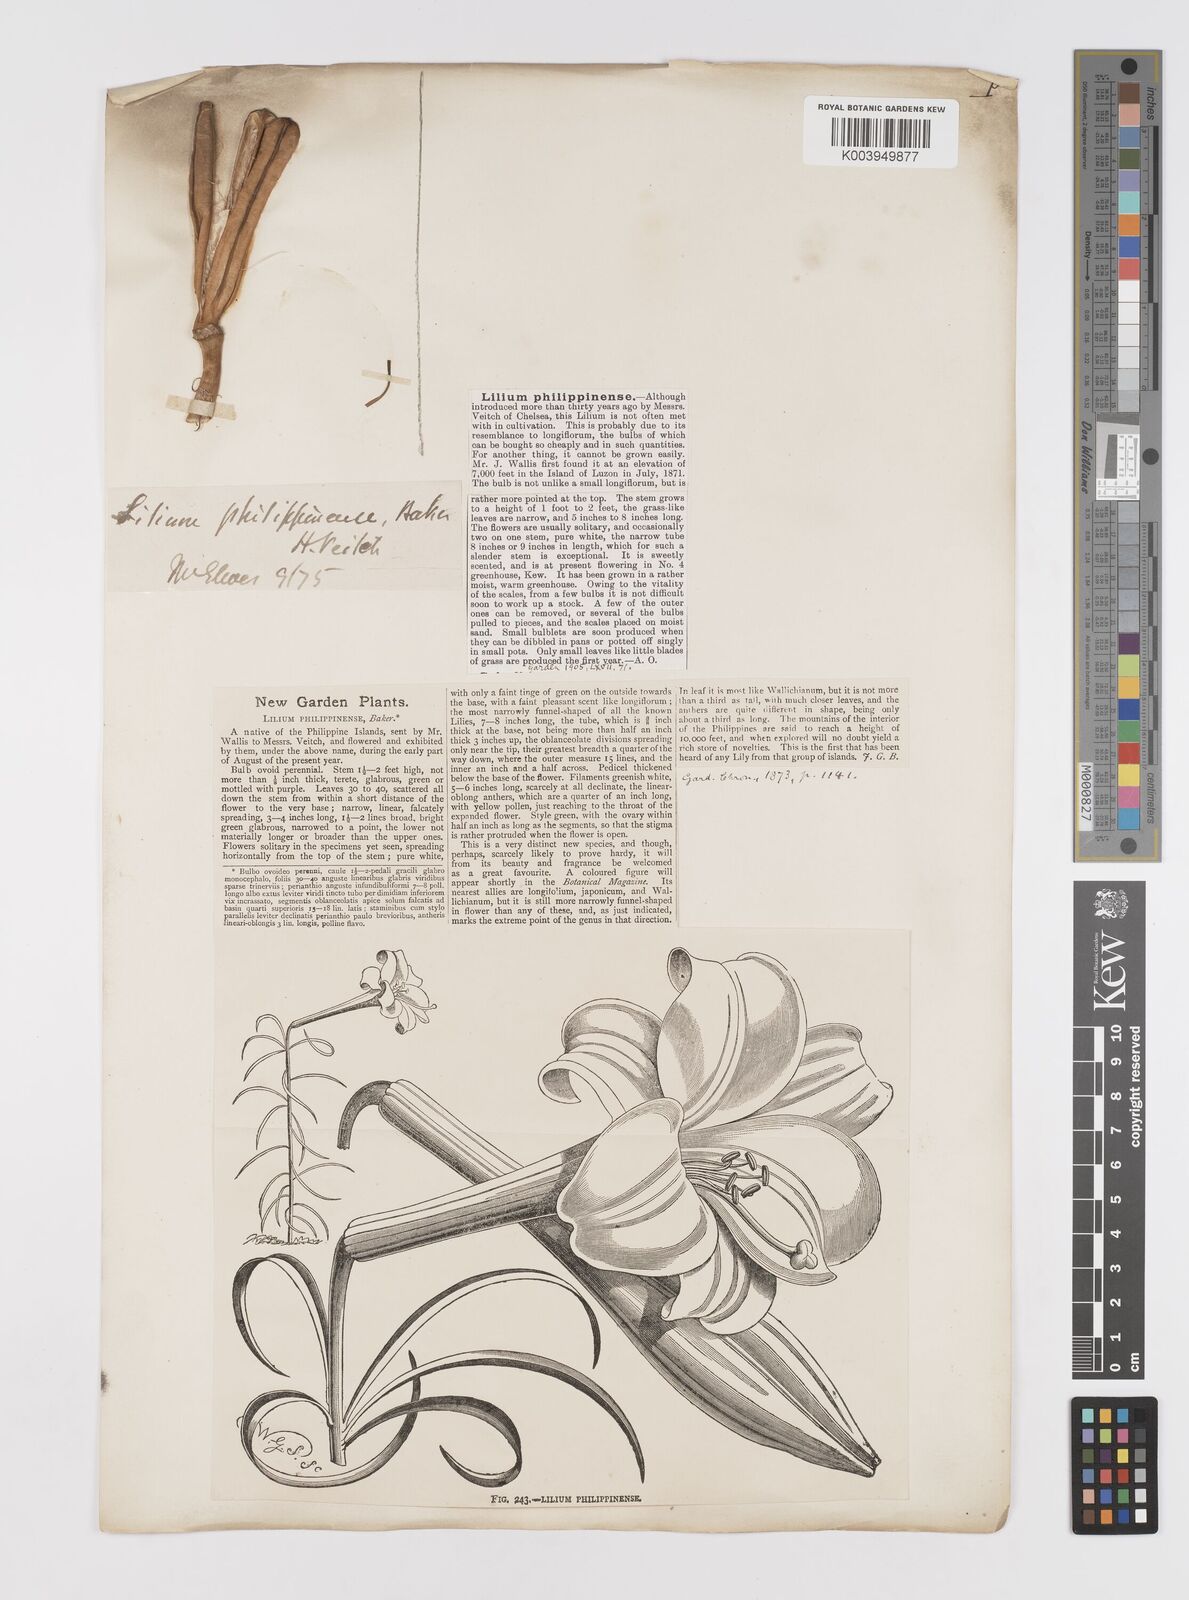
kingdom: Plantae
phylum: Tracheophyta
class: Liliopsida
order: Liliales
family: Liliaceae
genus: Lilium
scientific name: Lilium philippinense
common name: Philippine lily
